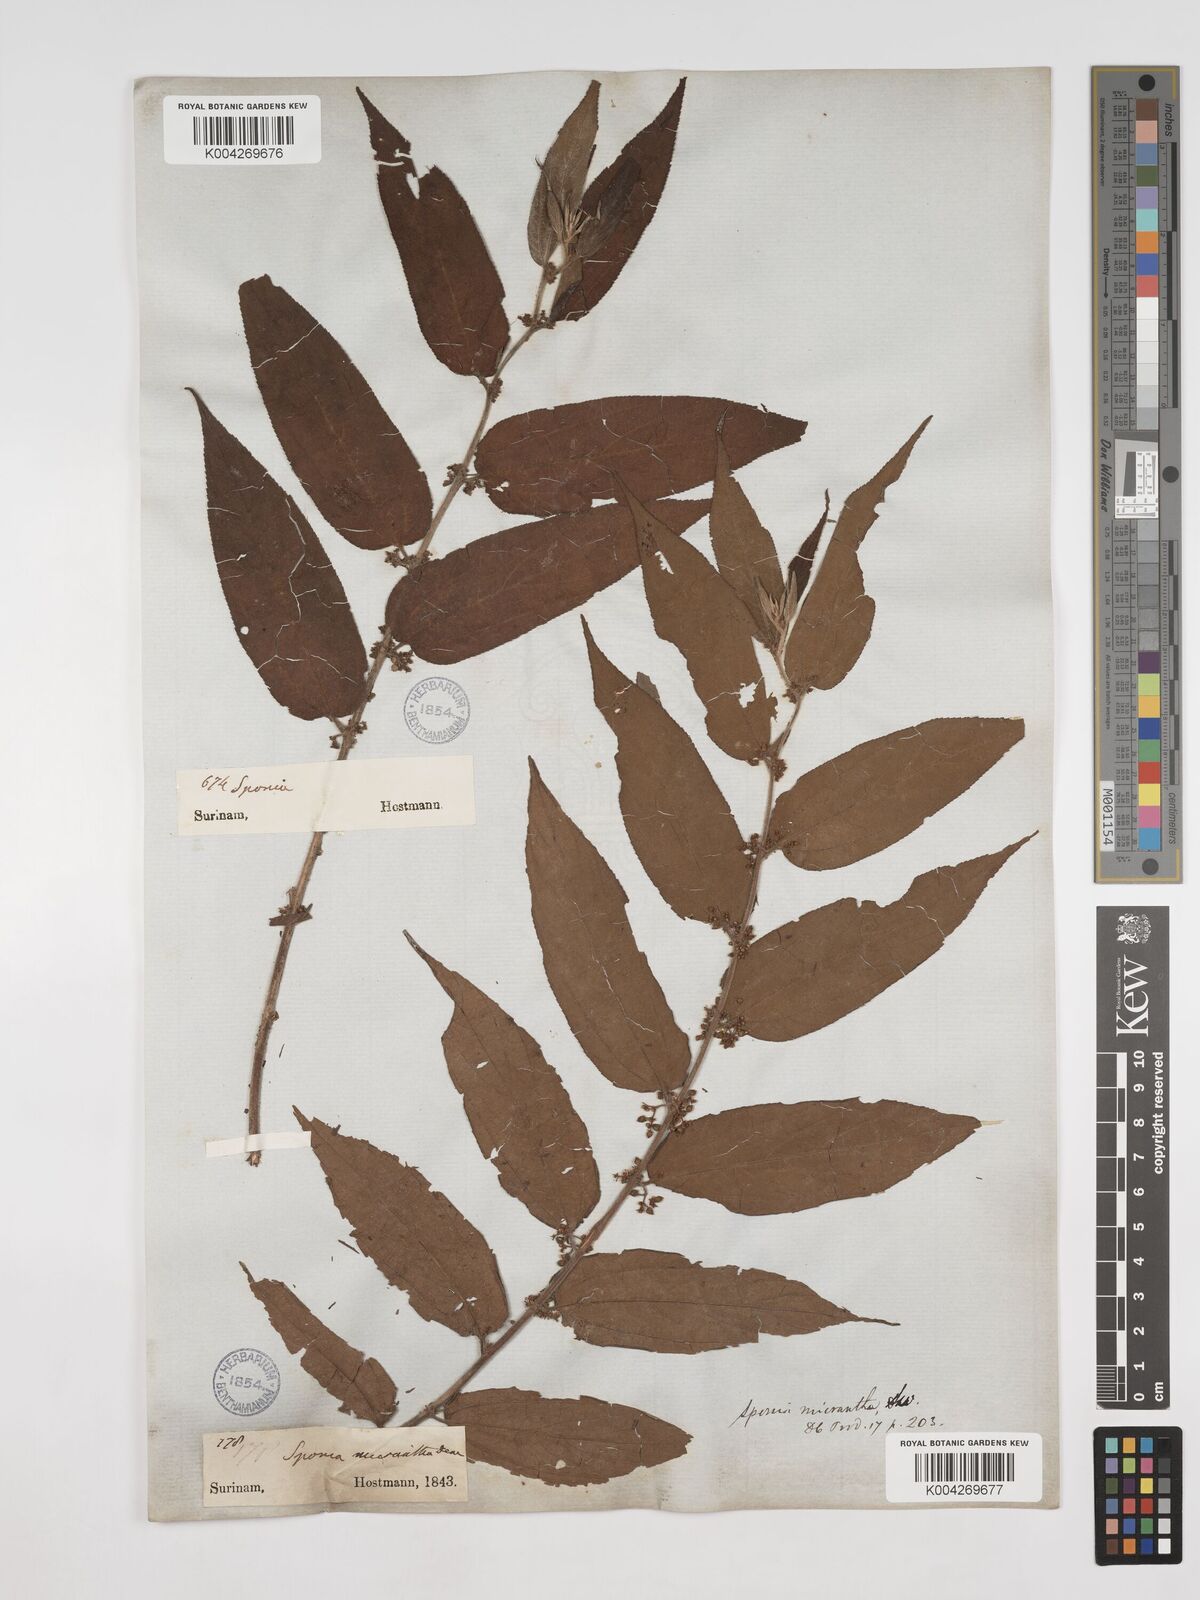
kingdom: Plantae
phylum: Tracheophyta
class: Magnoliopsida
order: Rosales
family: Cannabaceae
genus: Trema
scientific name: Trema micranthum
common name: Jamaican nettletree
